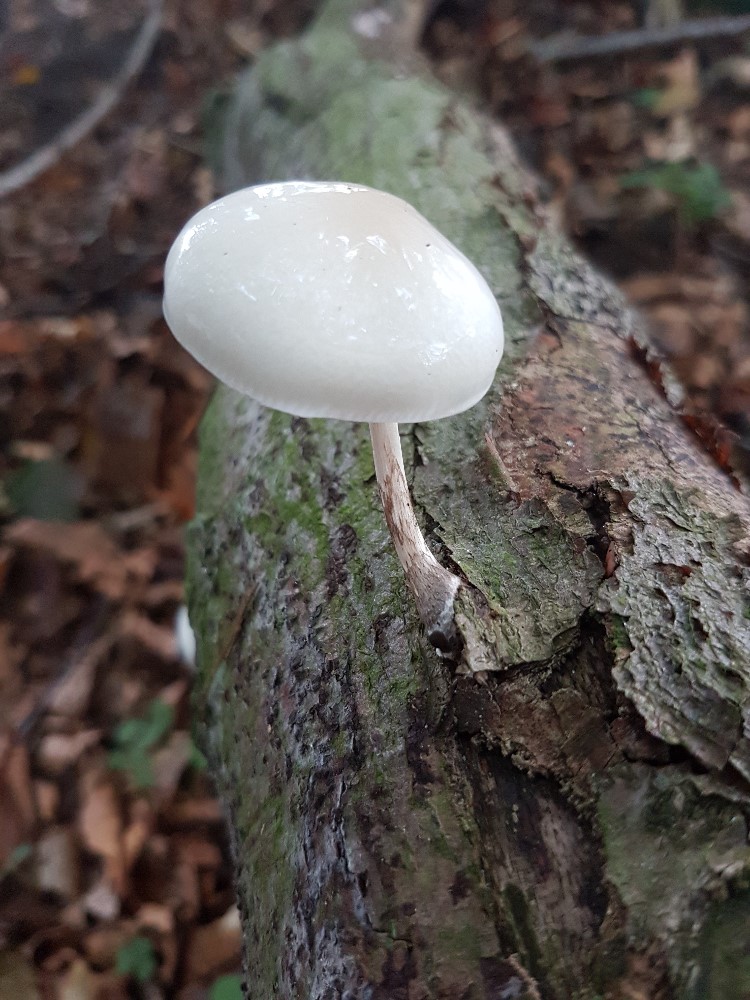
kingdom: Fungi
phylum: Basidiomycota
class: Agaricomycetes
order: Agaricales
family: Physalacriaceae
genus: Mucidula
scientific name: Mucidula mucida
